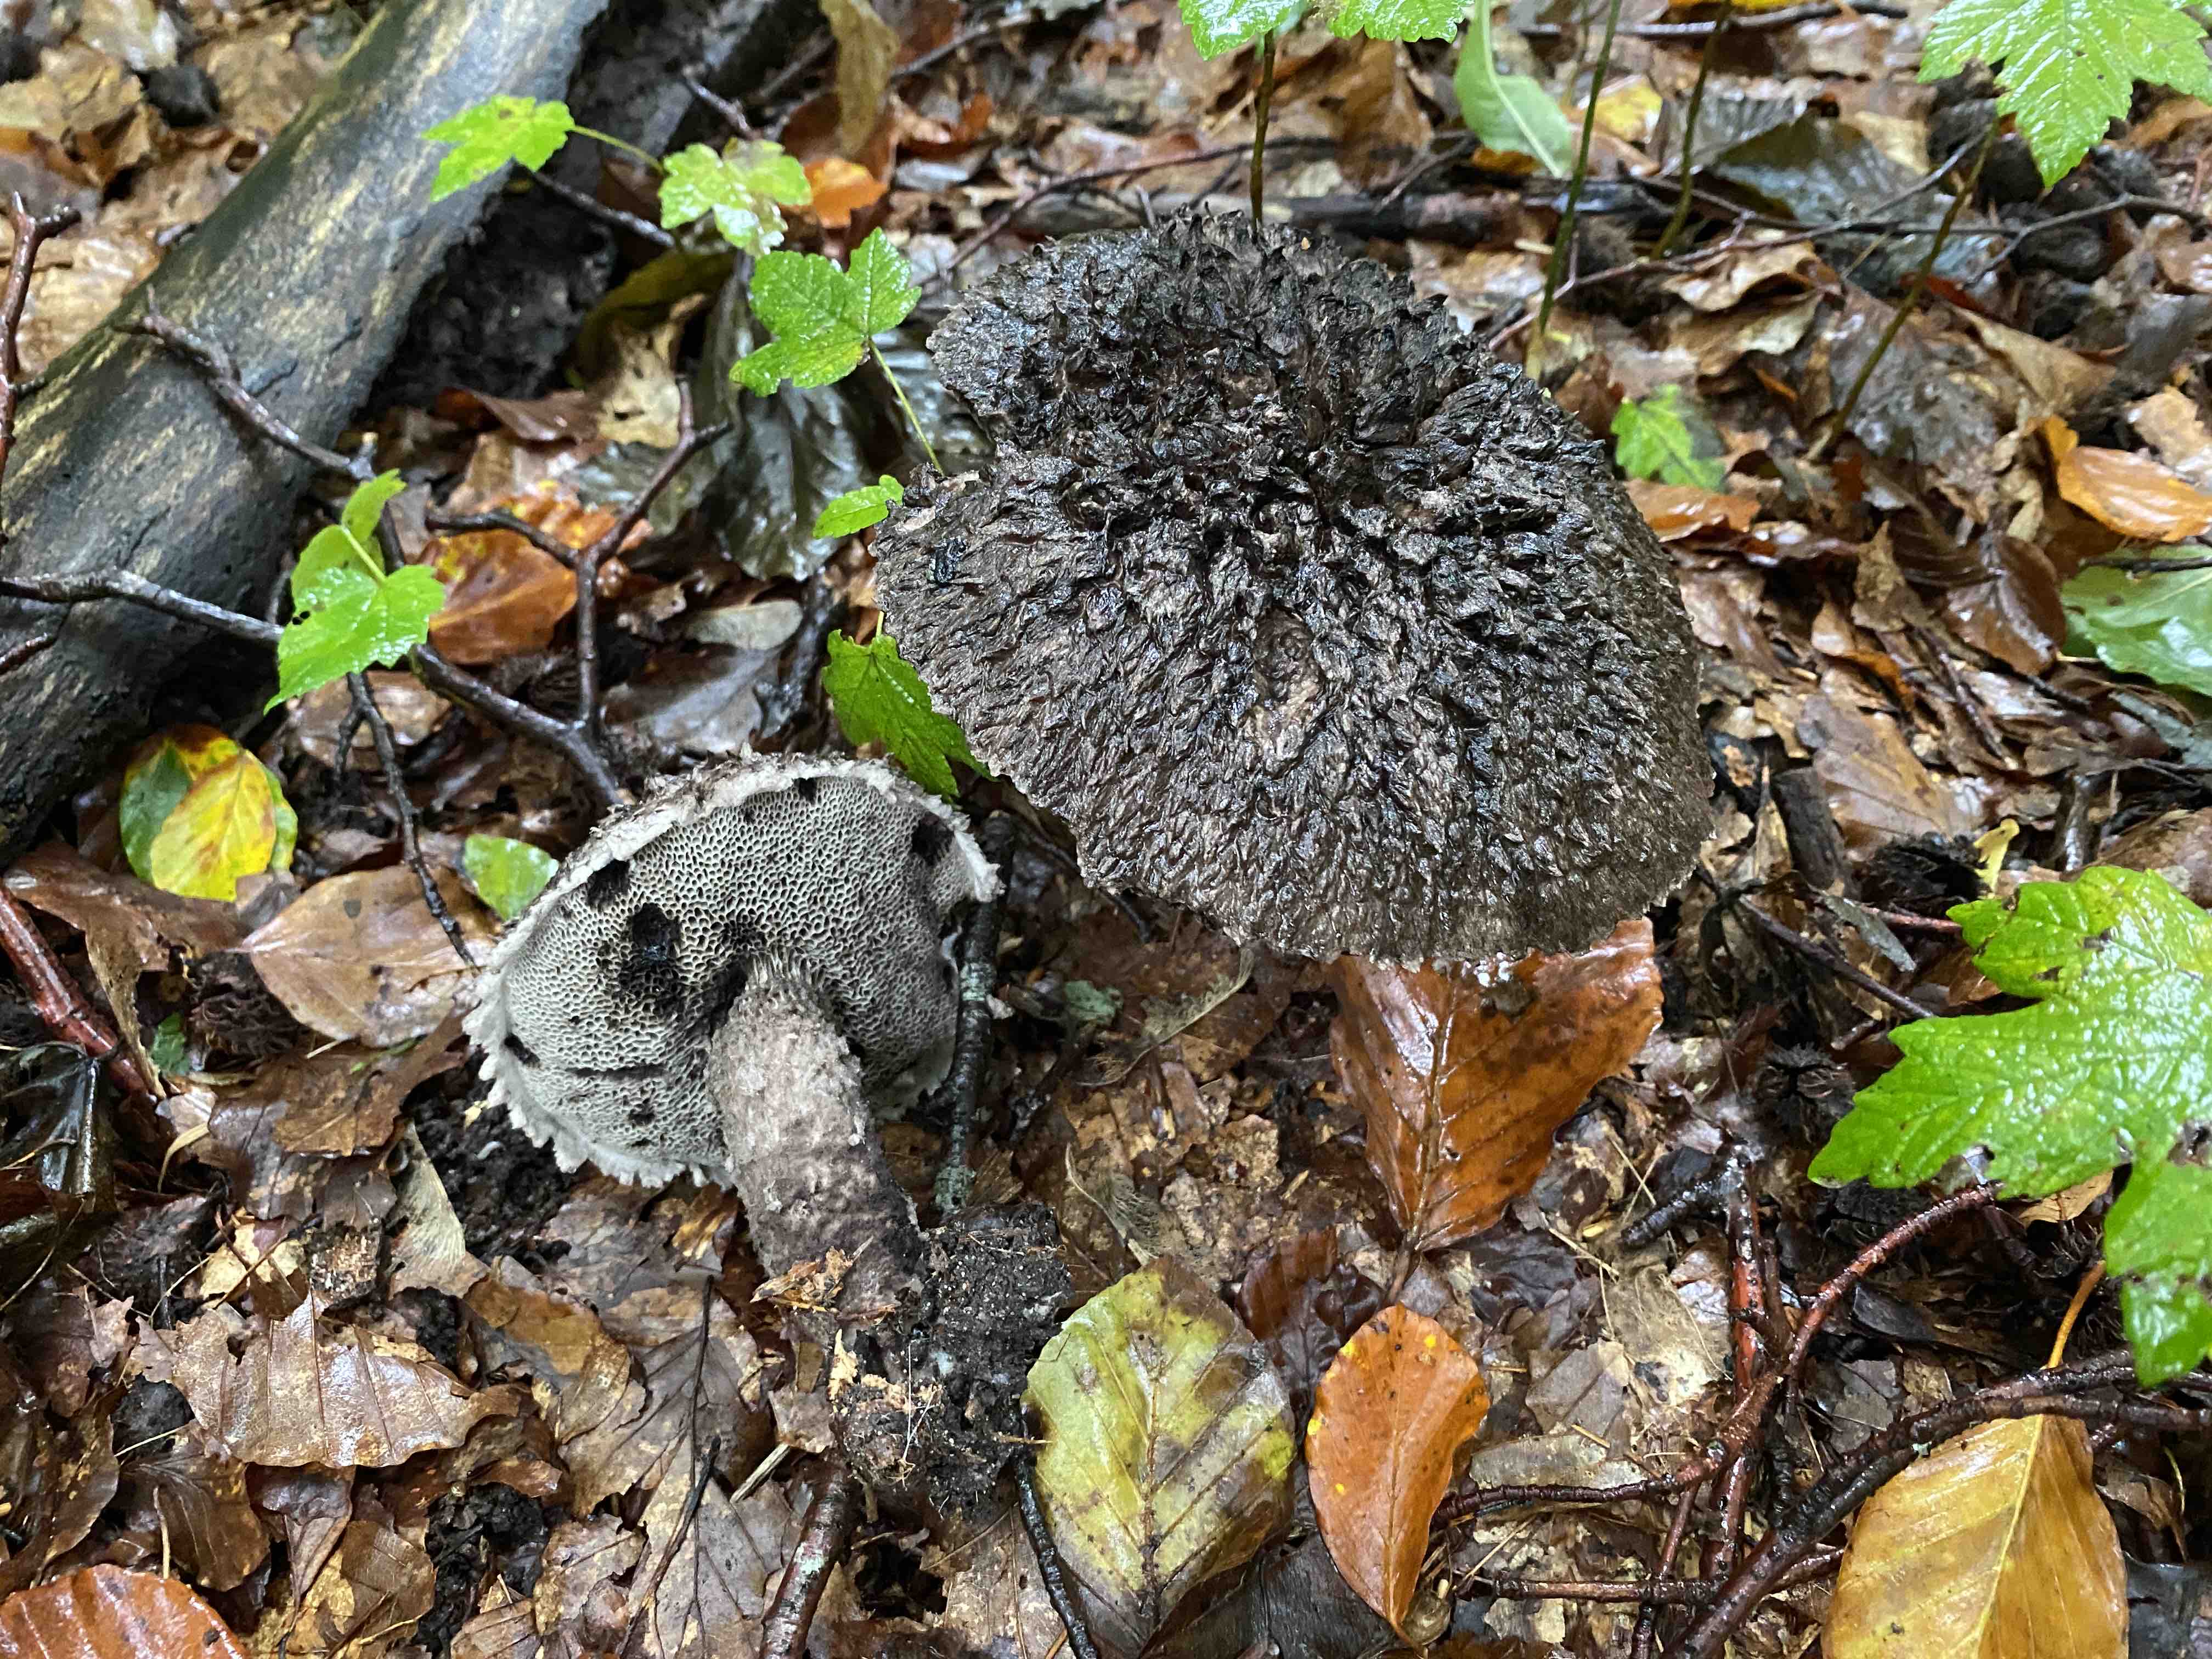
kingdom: Fungi
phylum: Basidiomycota
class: Agaricomycetes
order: Boletales
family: Boletaceae
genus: Strobilomyces
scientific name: Strobilomyces strobilaceus
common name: koglerørhat
